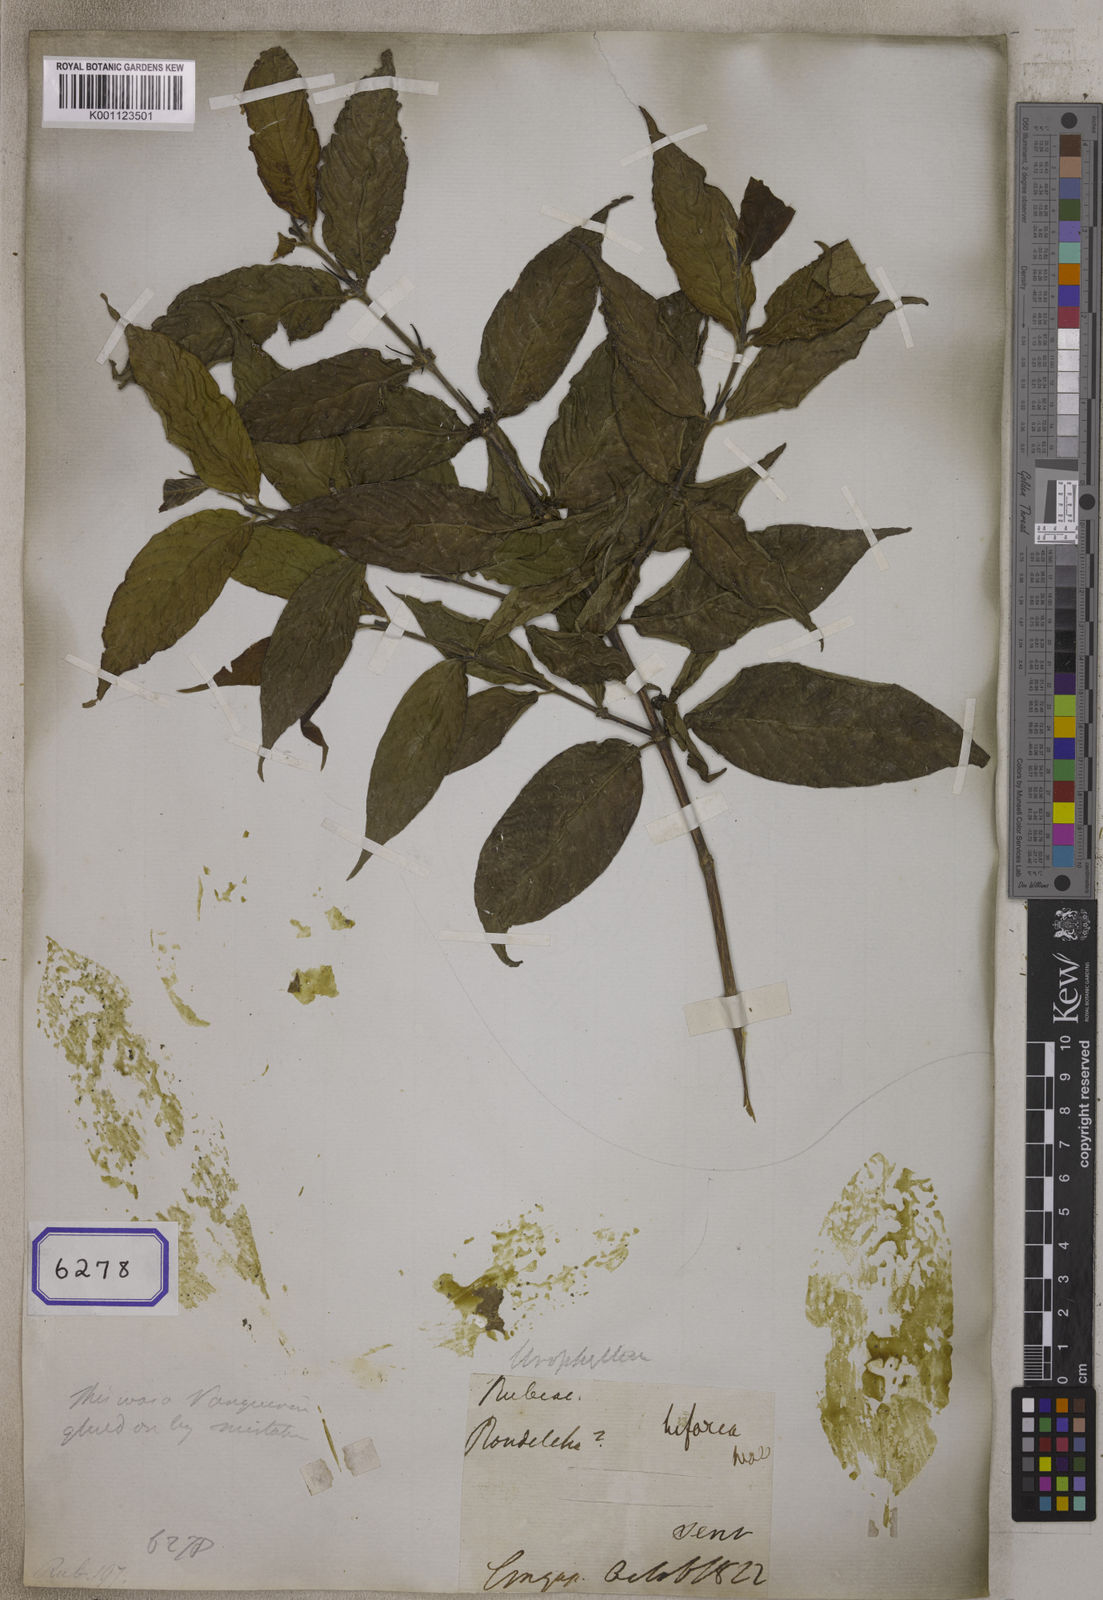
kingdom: Plantae
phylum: Tracheophyta
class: Magnoliopsida
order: Gentianales
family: Rubiaceae
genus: Urophyllum
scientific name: Urophyllum hirsutum
